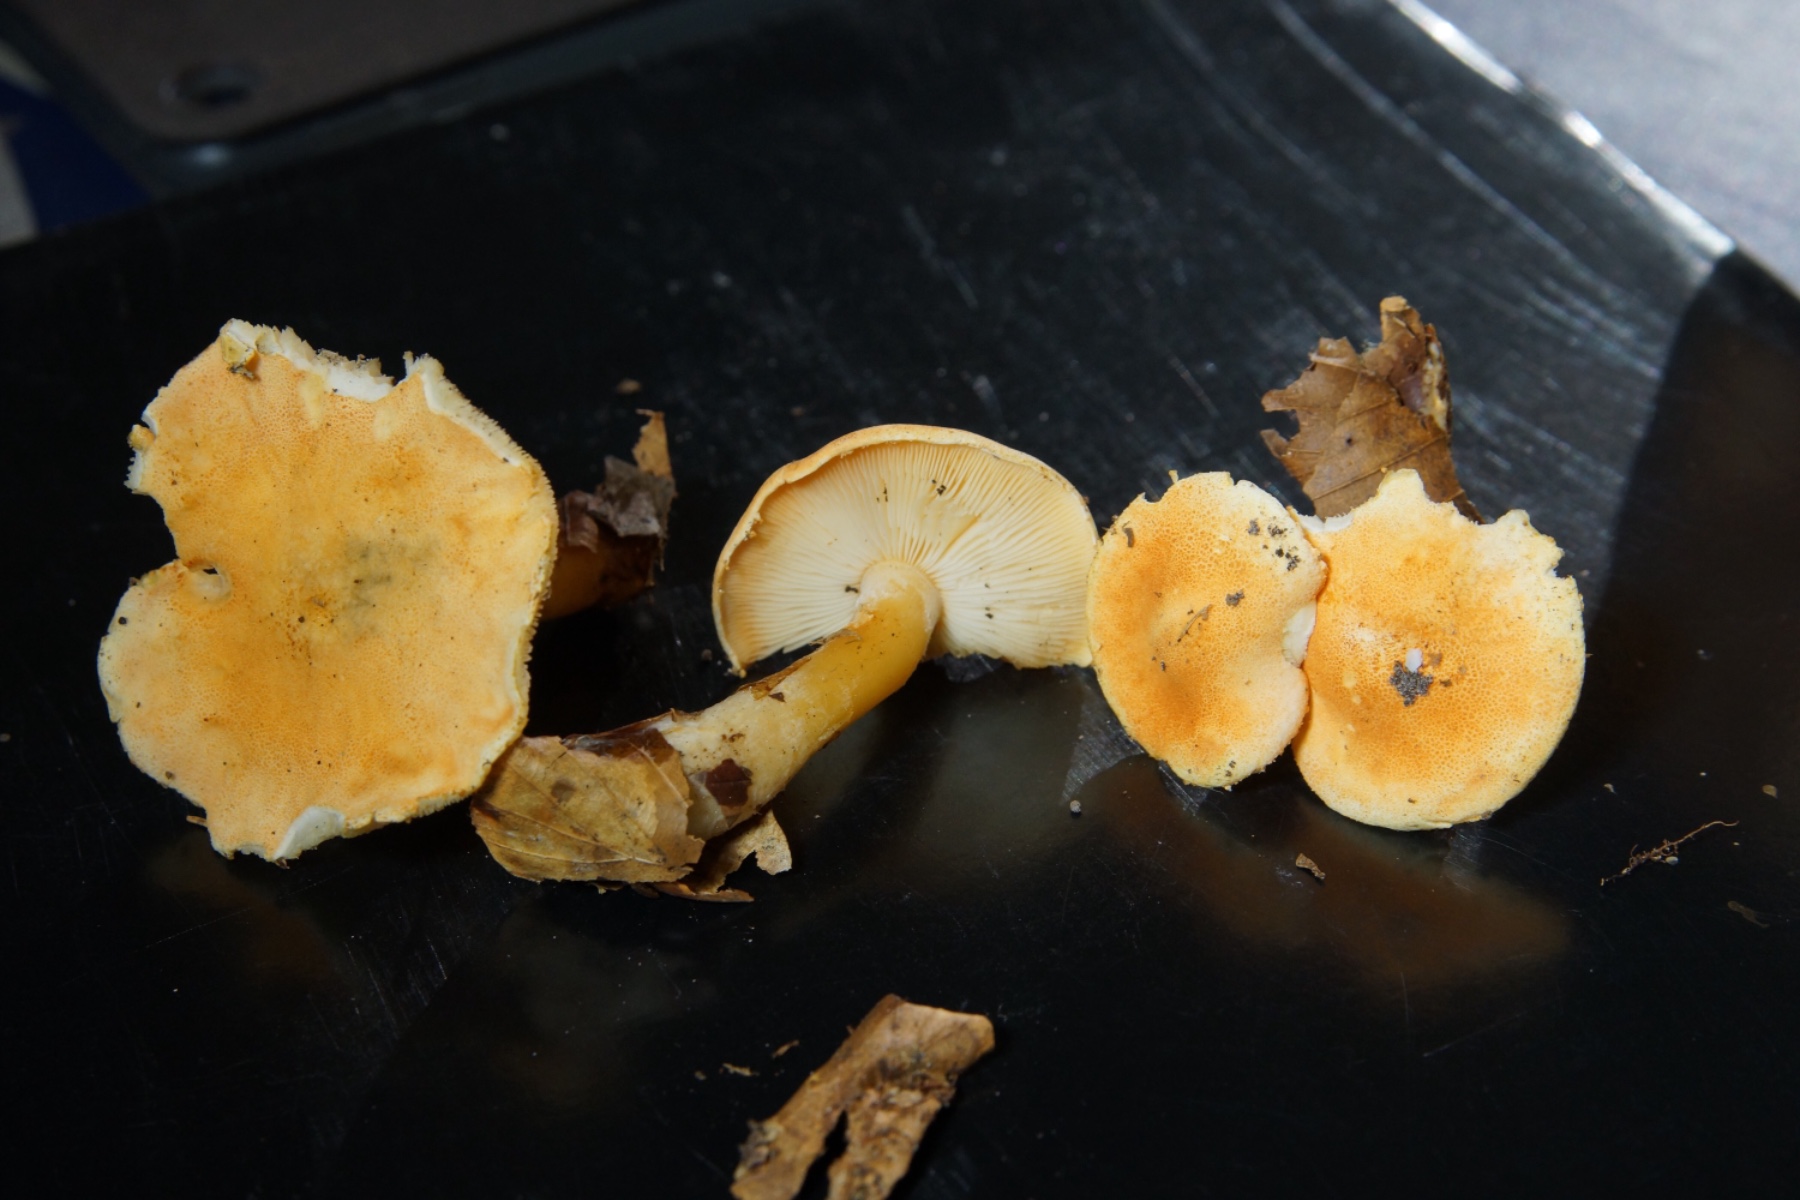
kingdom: Fungi
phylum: Basidiomycota
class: Agaricomycetes
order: Agaricales
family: Agaricaceae
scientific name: Agaricaceae
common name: champignonfamilien
